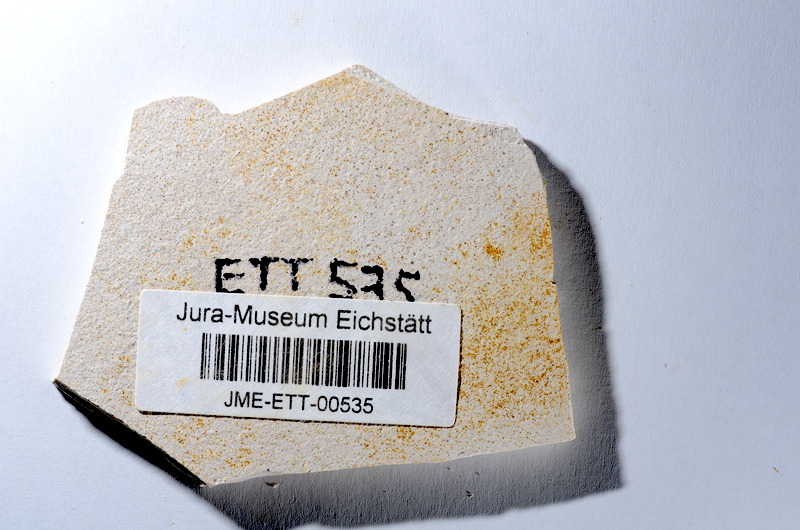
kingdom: Animalia
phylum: Chordata
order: Salmoniformes
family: Orthogonikleithridae
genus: Orthogonikleithrus
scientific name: Orthogonikleithrus hoelli
